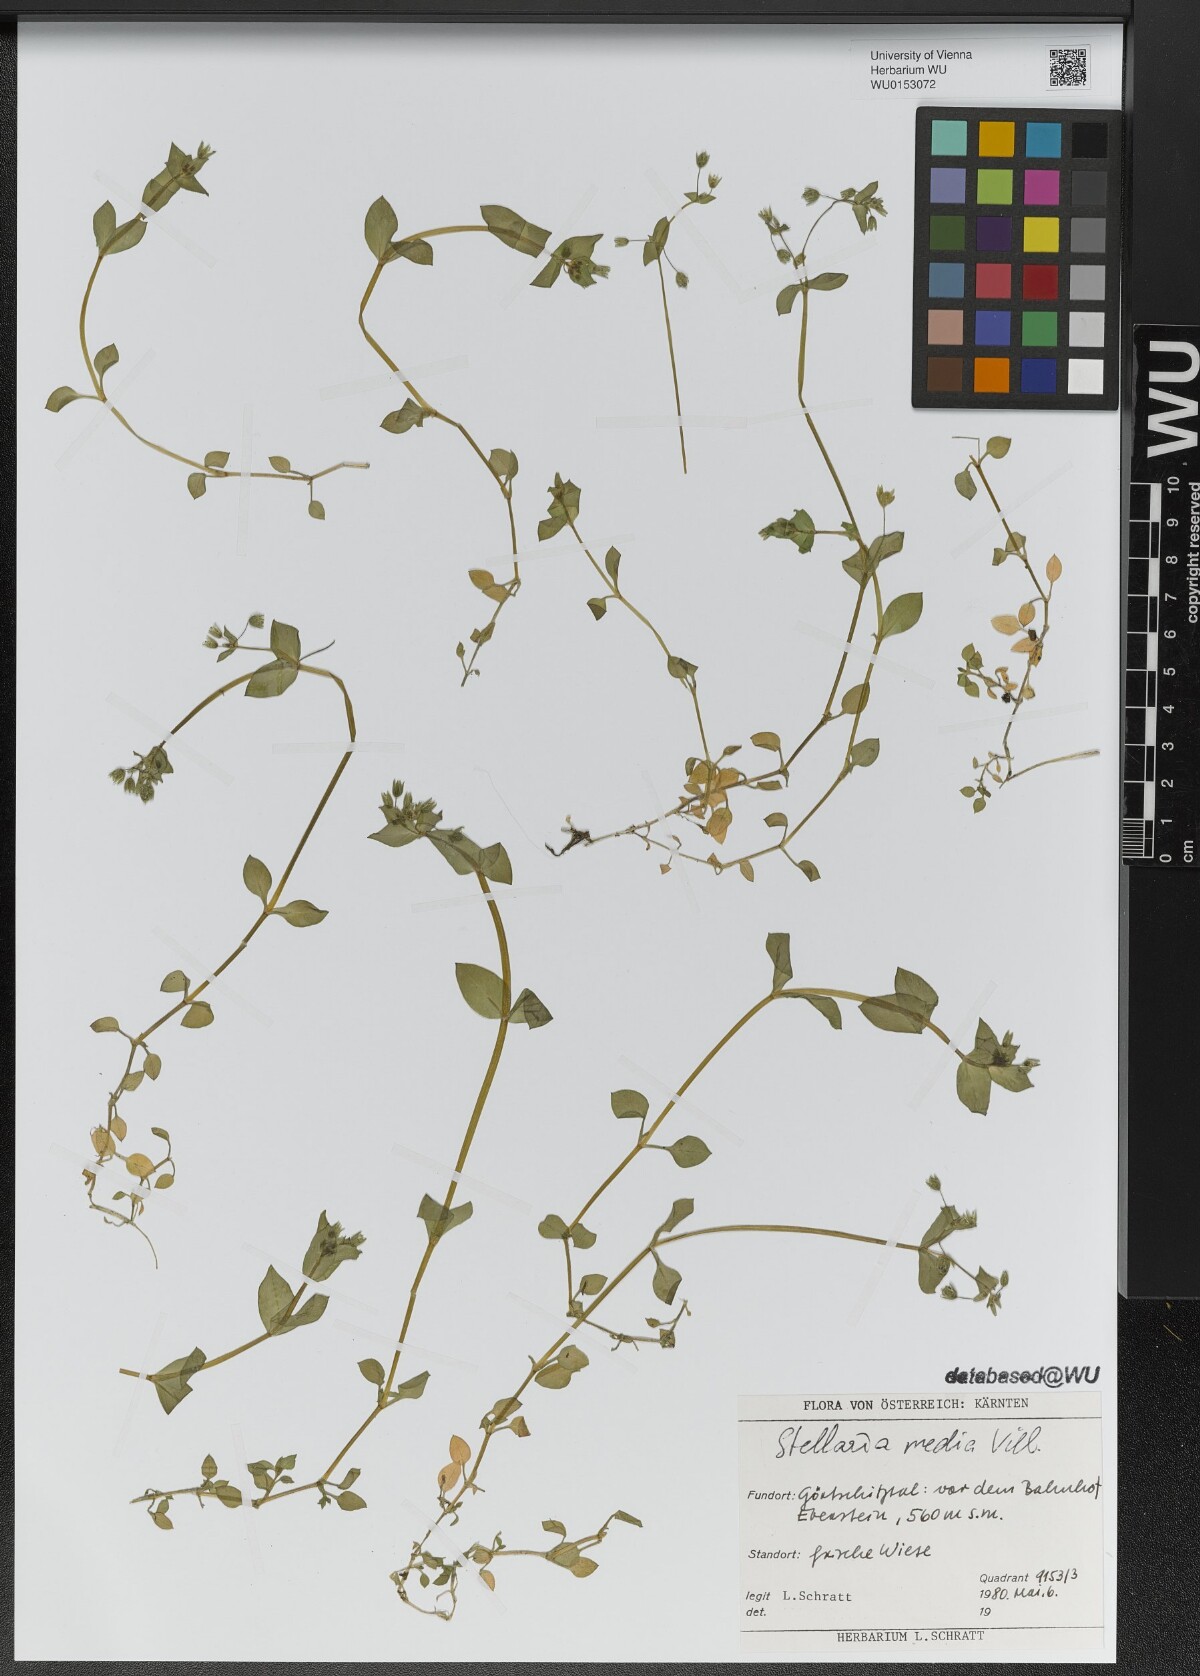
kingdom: Plantae
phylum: Tracheophyta
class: Magnoliopsida
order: Caryophyllales
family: Caryophyllaceae
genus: Stellaria
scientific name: Stellaria media
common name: Common chickweed
